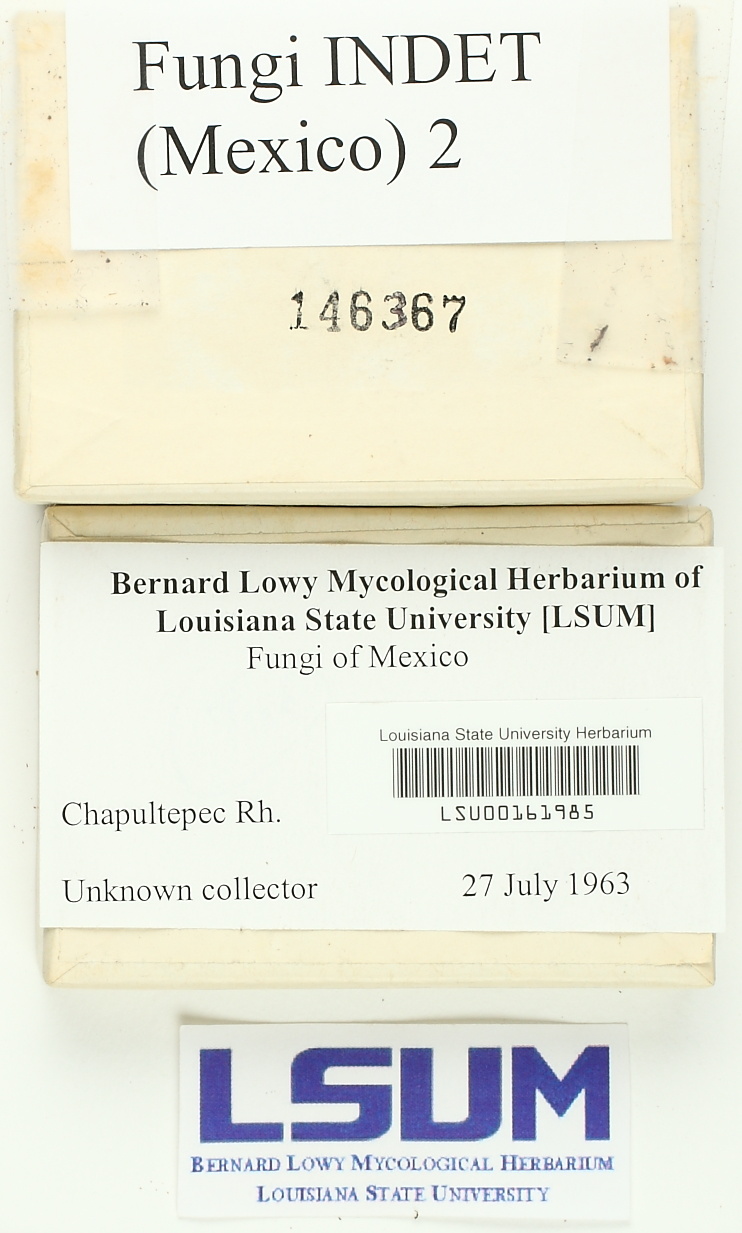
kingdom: Fungi
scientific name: Fungi
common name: Fungi
